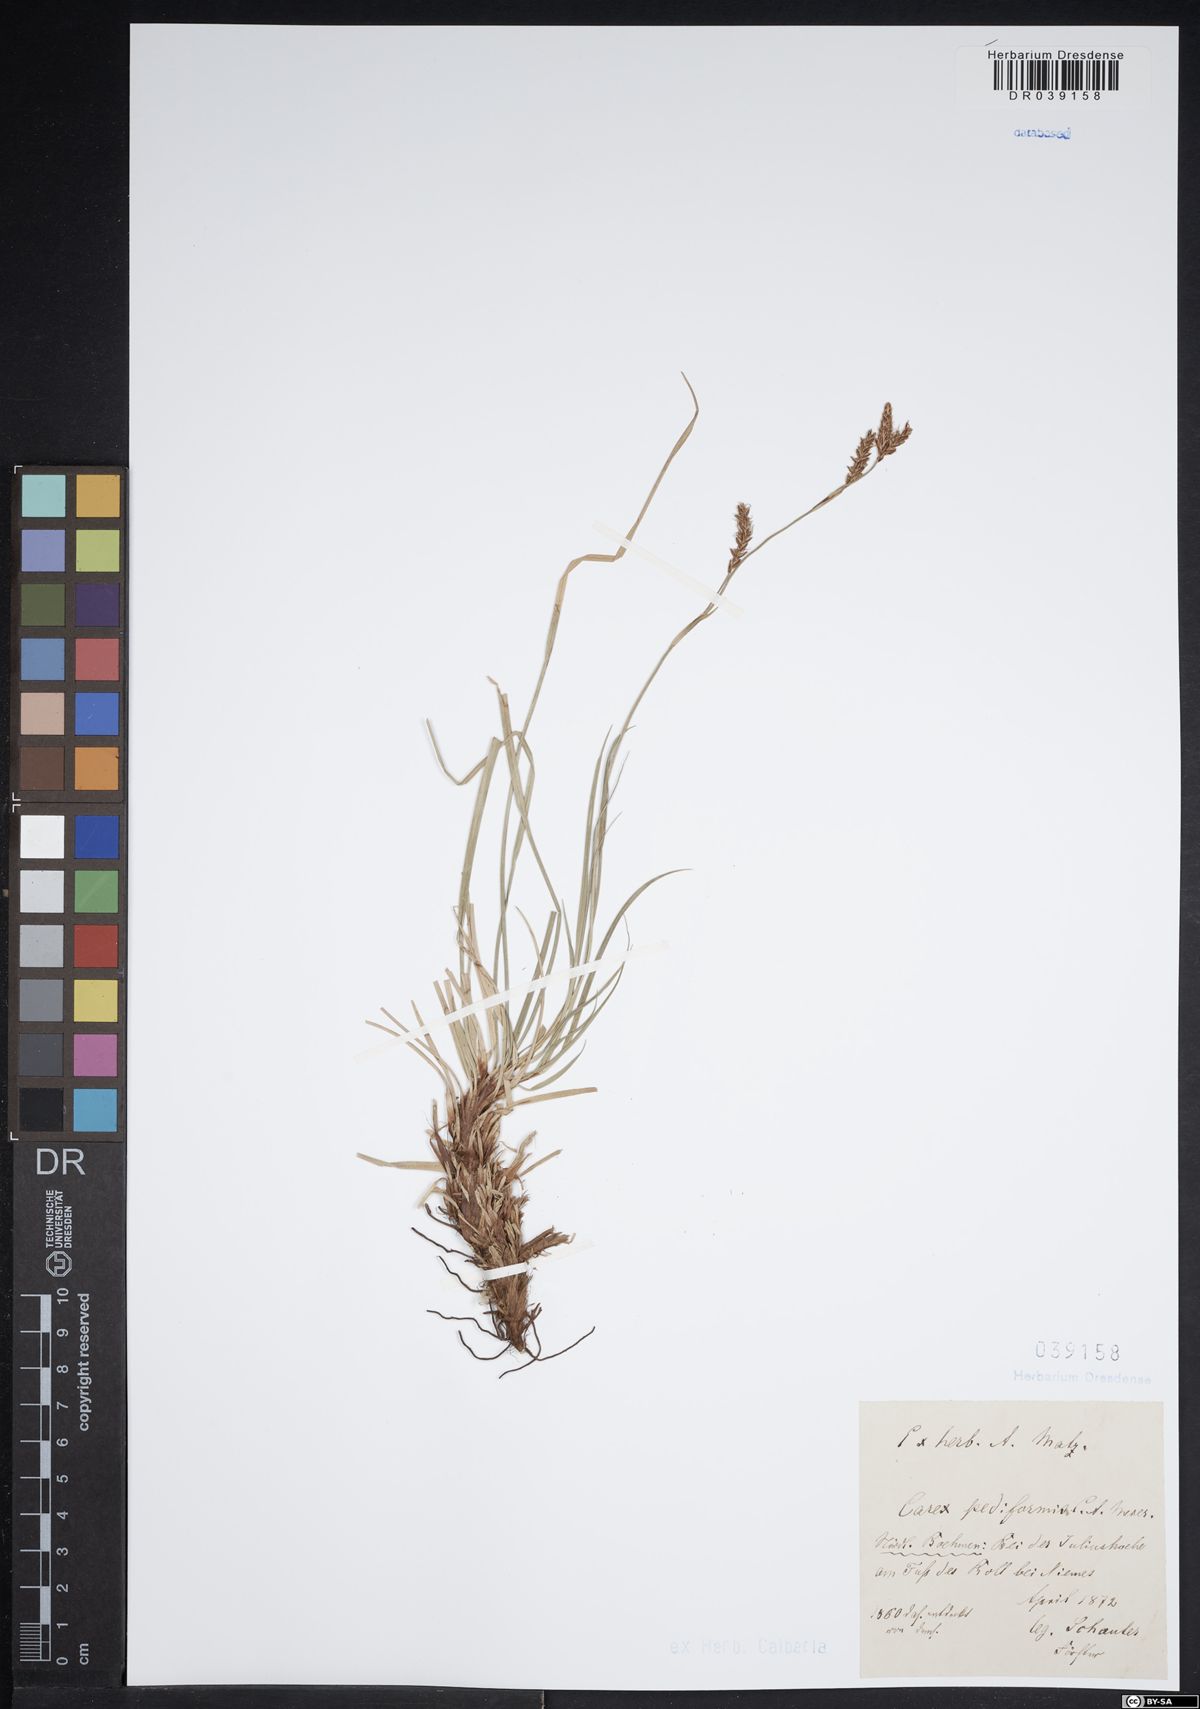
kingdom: Plantae
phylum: Tracheophyta
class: Liliopsida
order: Poales
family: Cyperaceae
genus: Carex
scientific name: Carex pediformis
